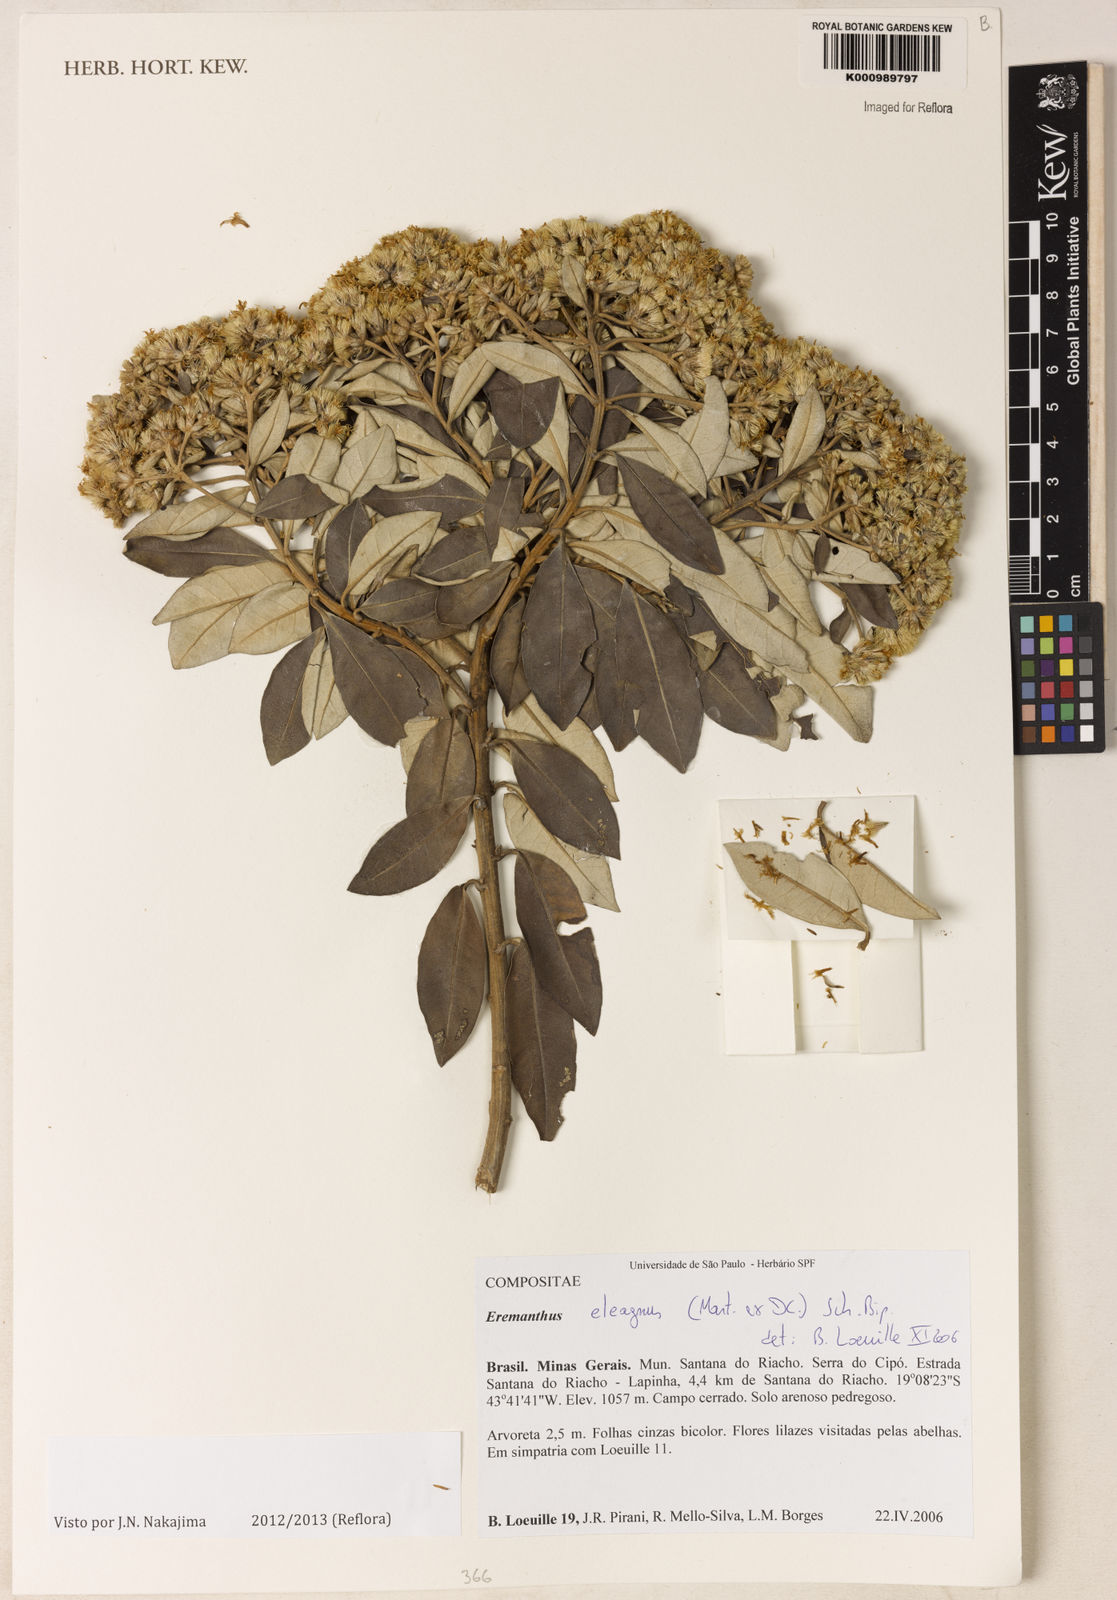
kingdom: Plantae
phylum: Tracheophyta
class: Magnoliopsida
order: Asterales
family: Asteraceae
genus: Eremanthus
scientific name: Eremanthus elaeagnus
